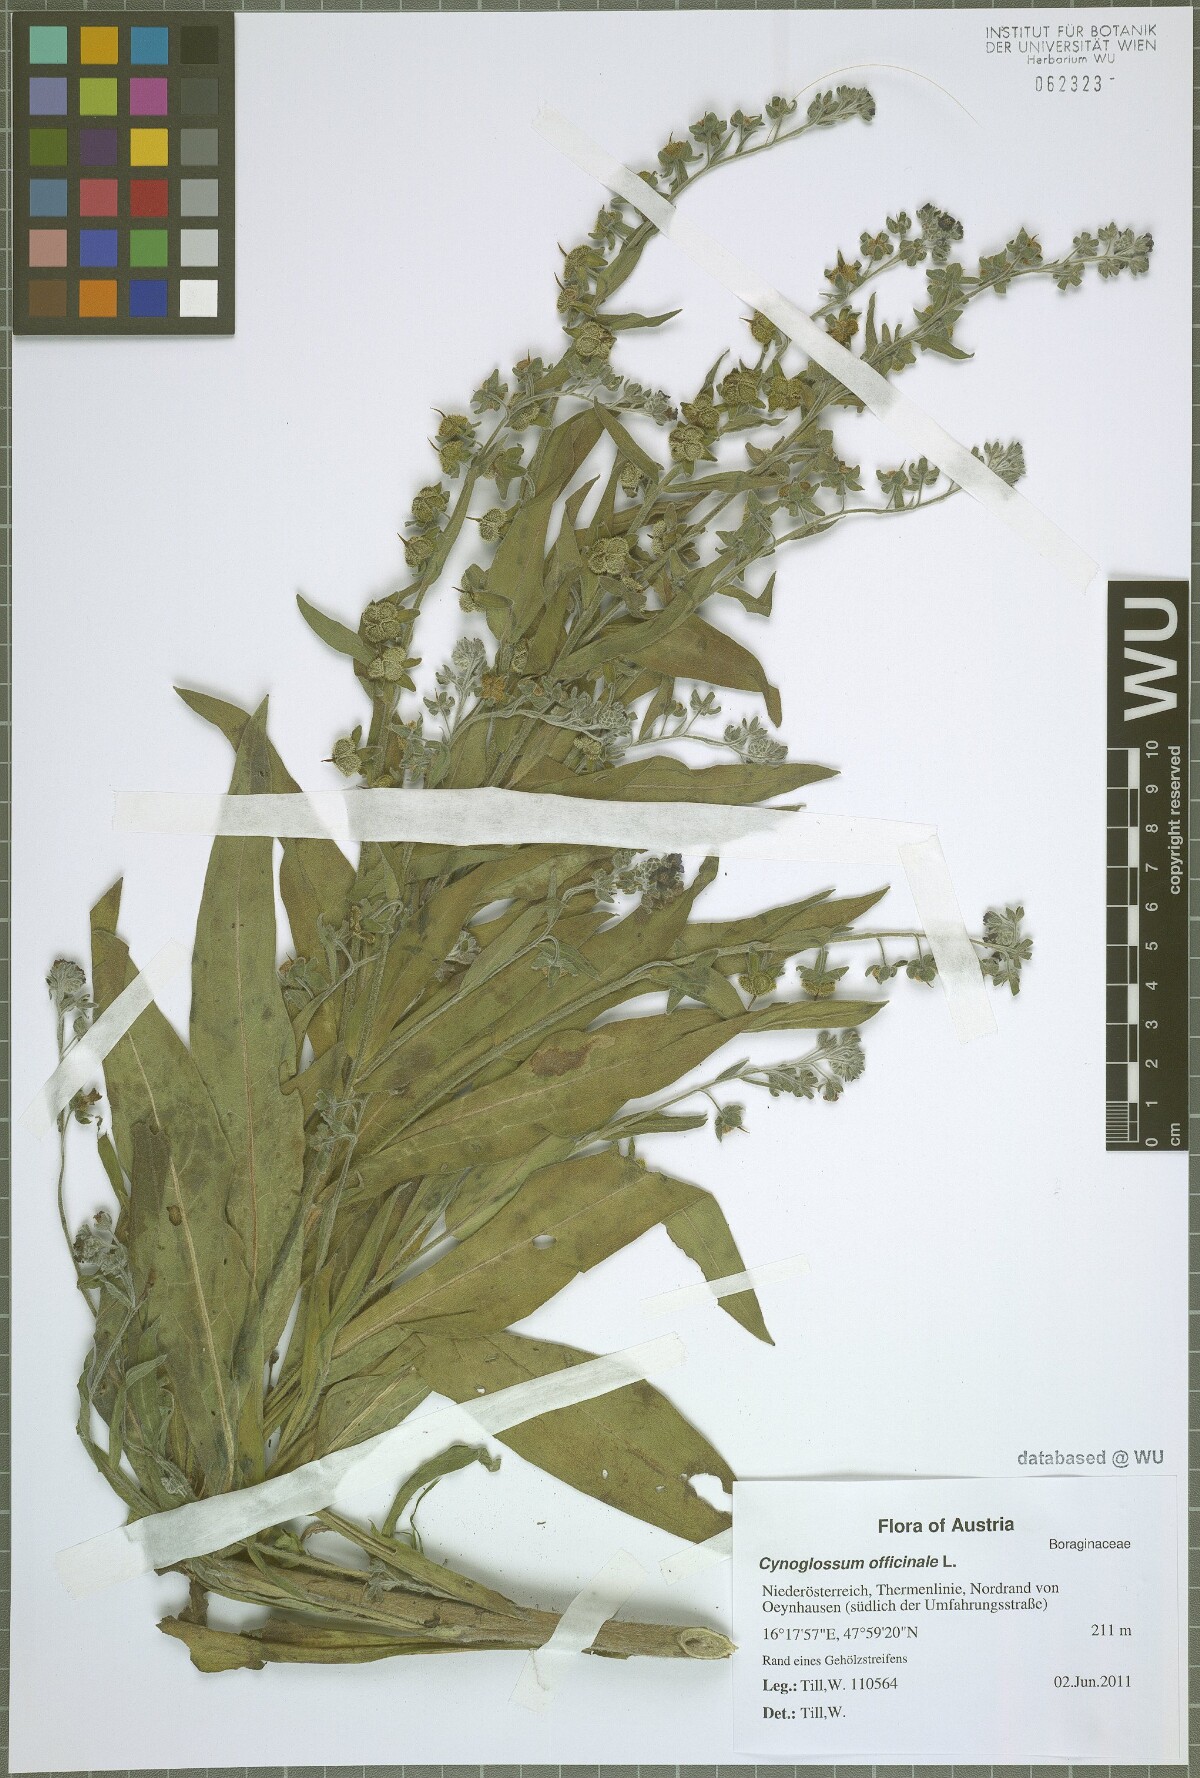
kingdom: Plantae
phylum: Tracheophyta
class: Magnoliopsida
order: Boraginales
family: Boraginaceae
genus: Cynoglossum
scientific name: Cynoglossum officinale
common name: Hound's-tongue
